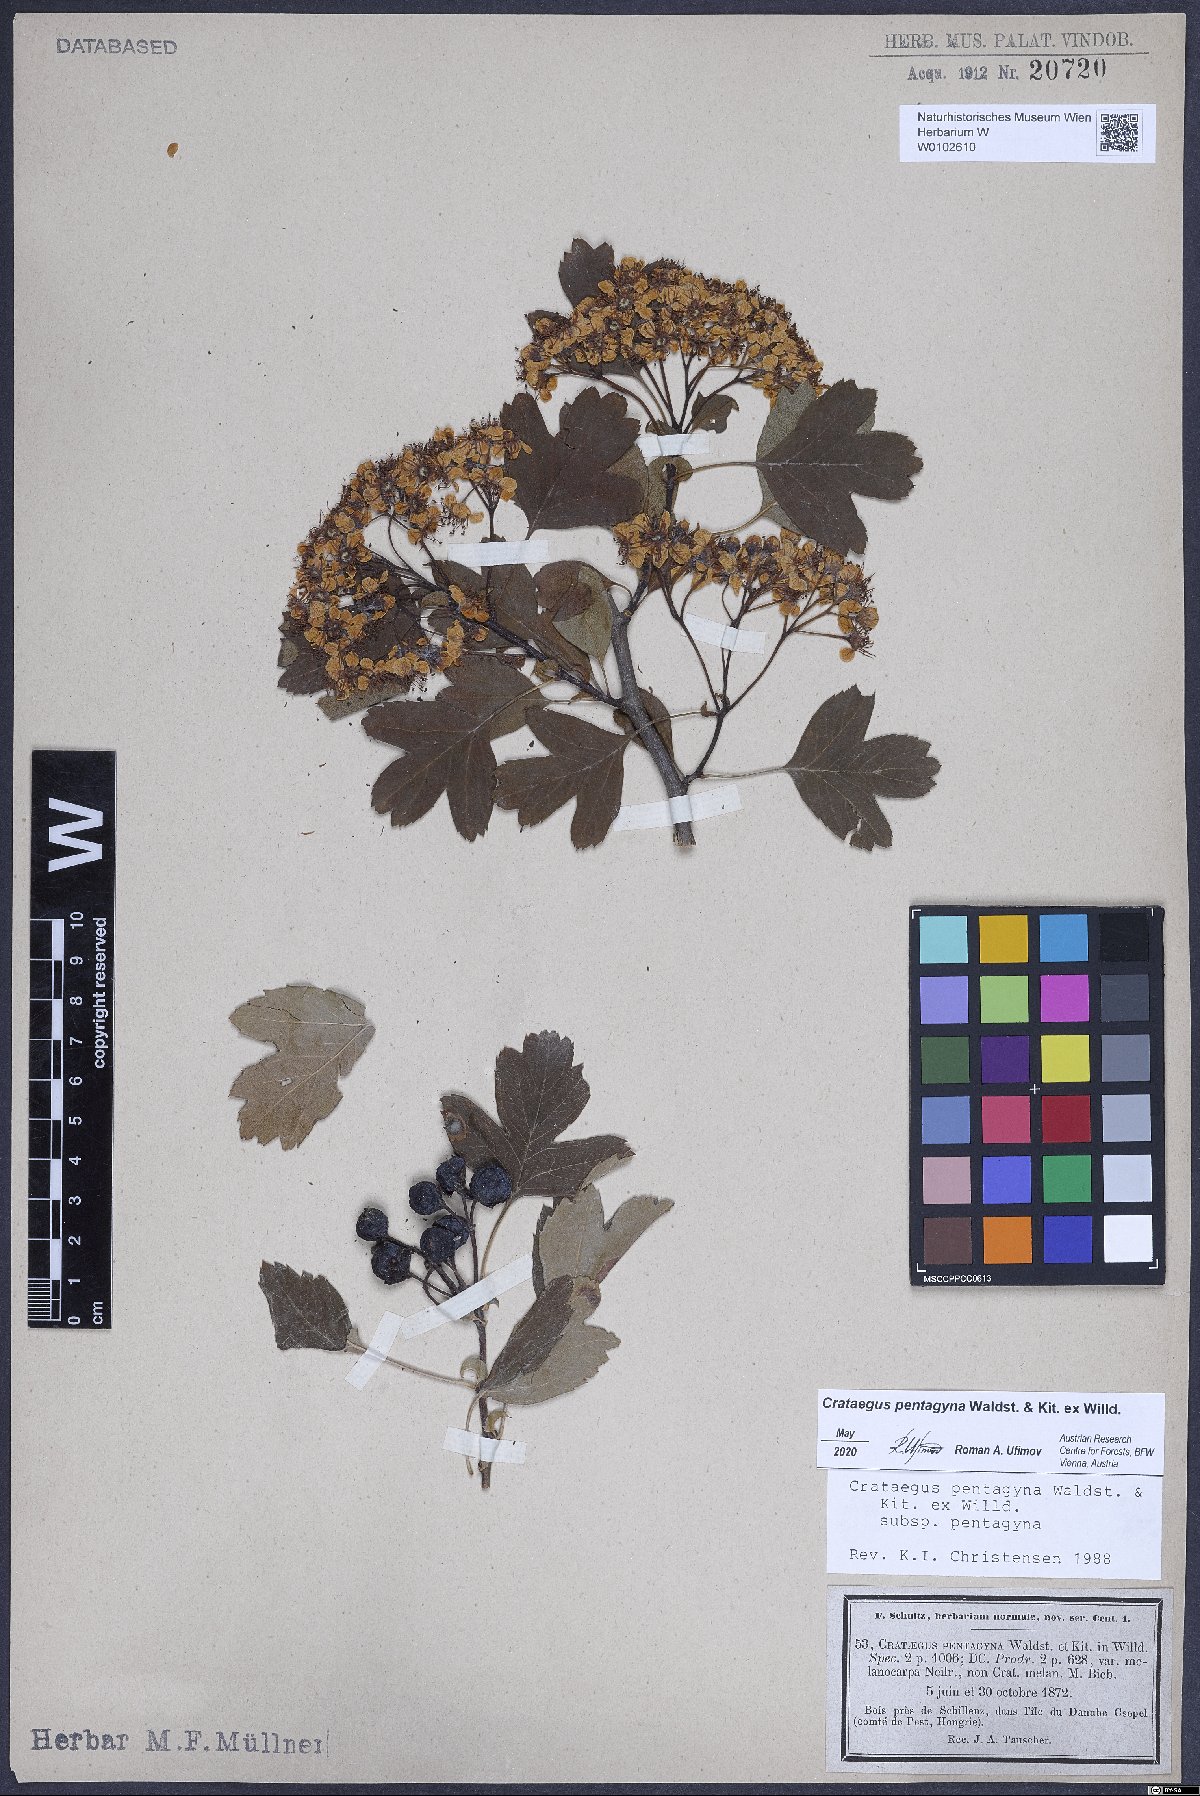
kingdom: Plantae
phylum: Tracheophyta
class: Magnoliopsida
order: Rosales
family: Rosaceae
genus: Crataegus
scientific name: Crataegus pentagyna
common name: Small-flowered black hawthorn
